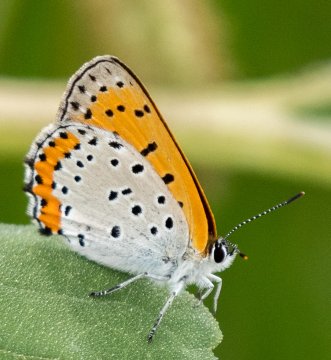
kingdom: Animalia
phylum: Arthropoda
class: Insecta
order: Lepidoptera
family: Sesiidae
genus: Sesia
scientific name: Sesia Lycaena hyllus
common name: Bronze Copper
